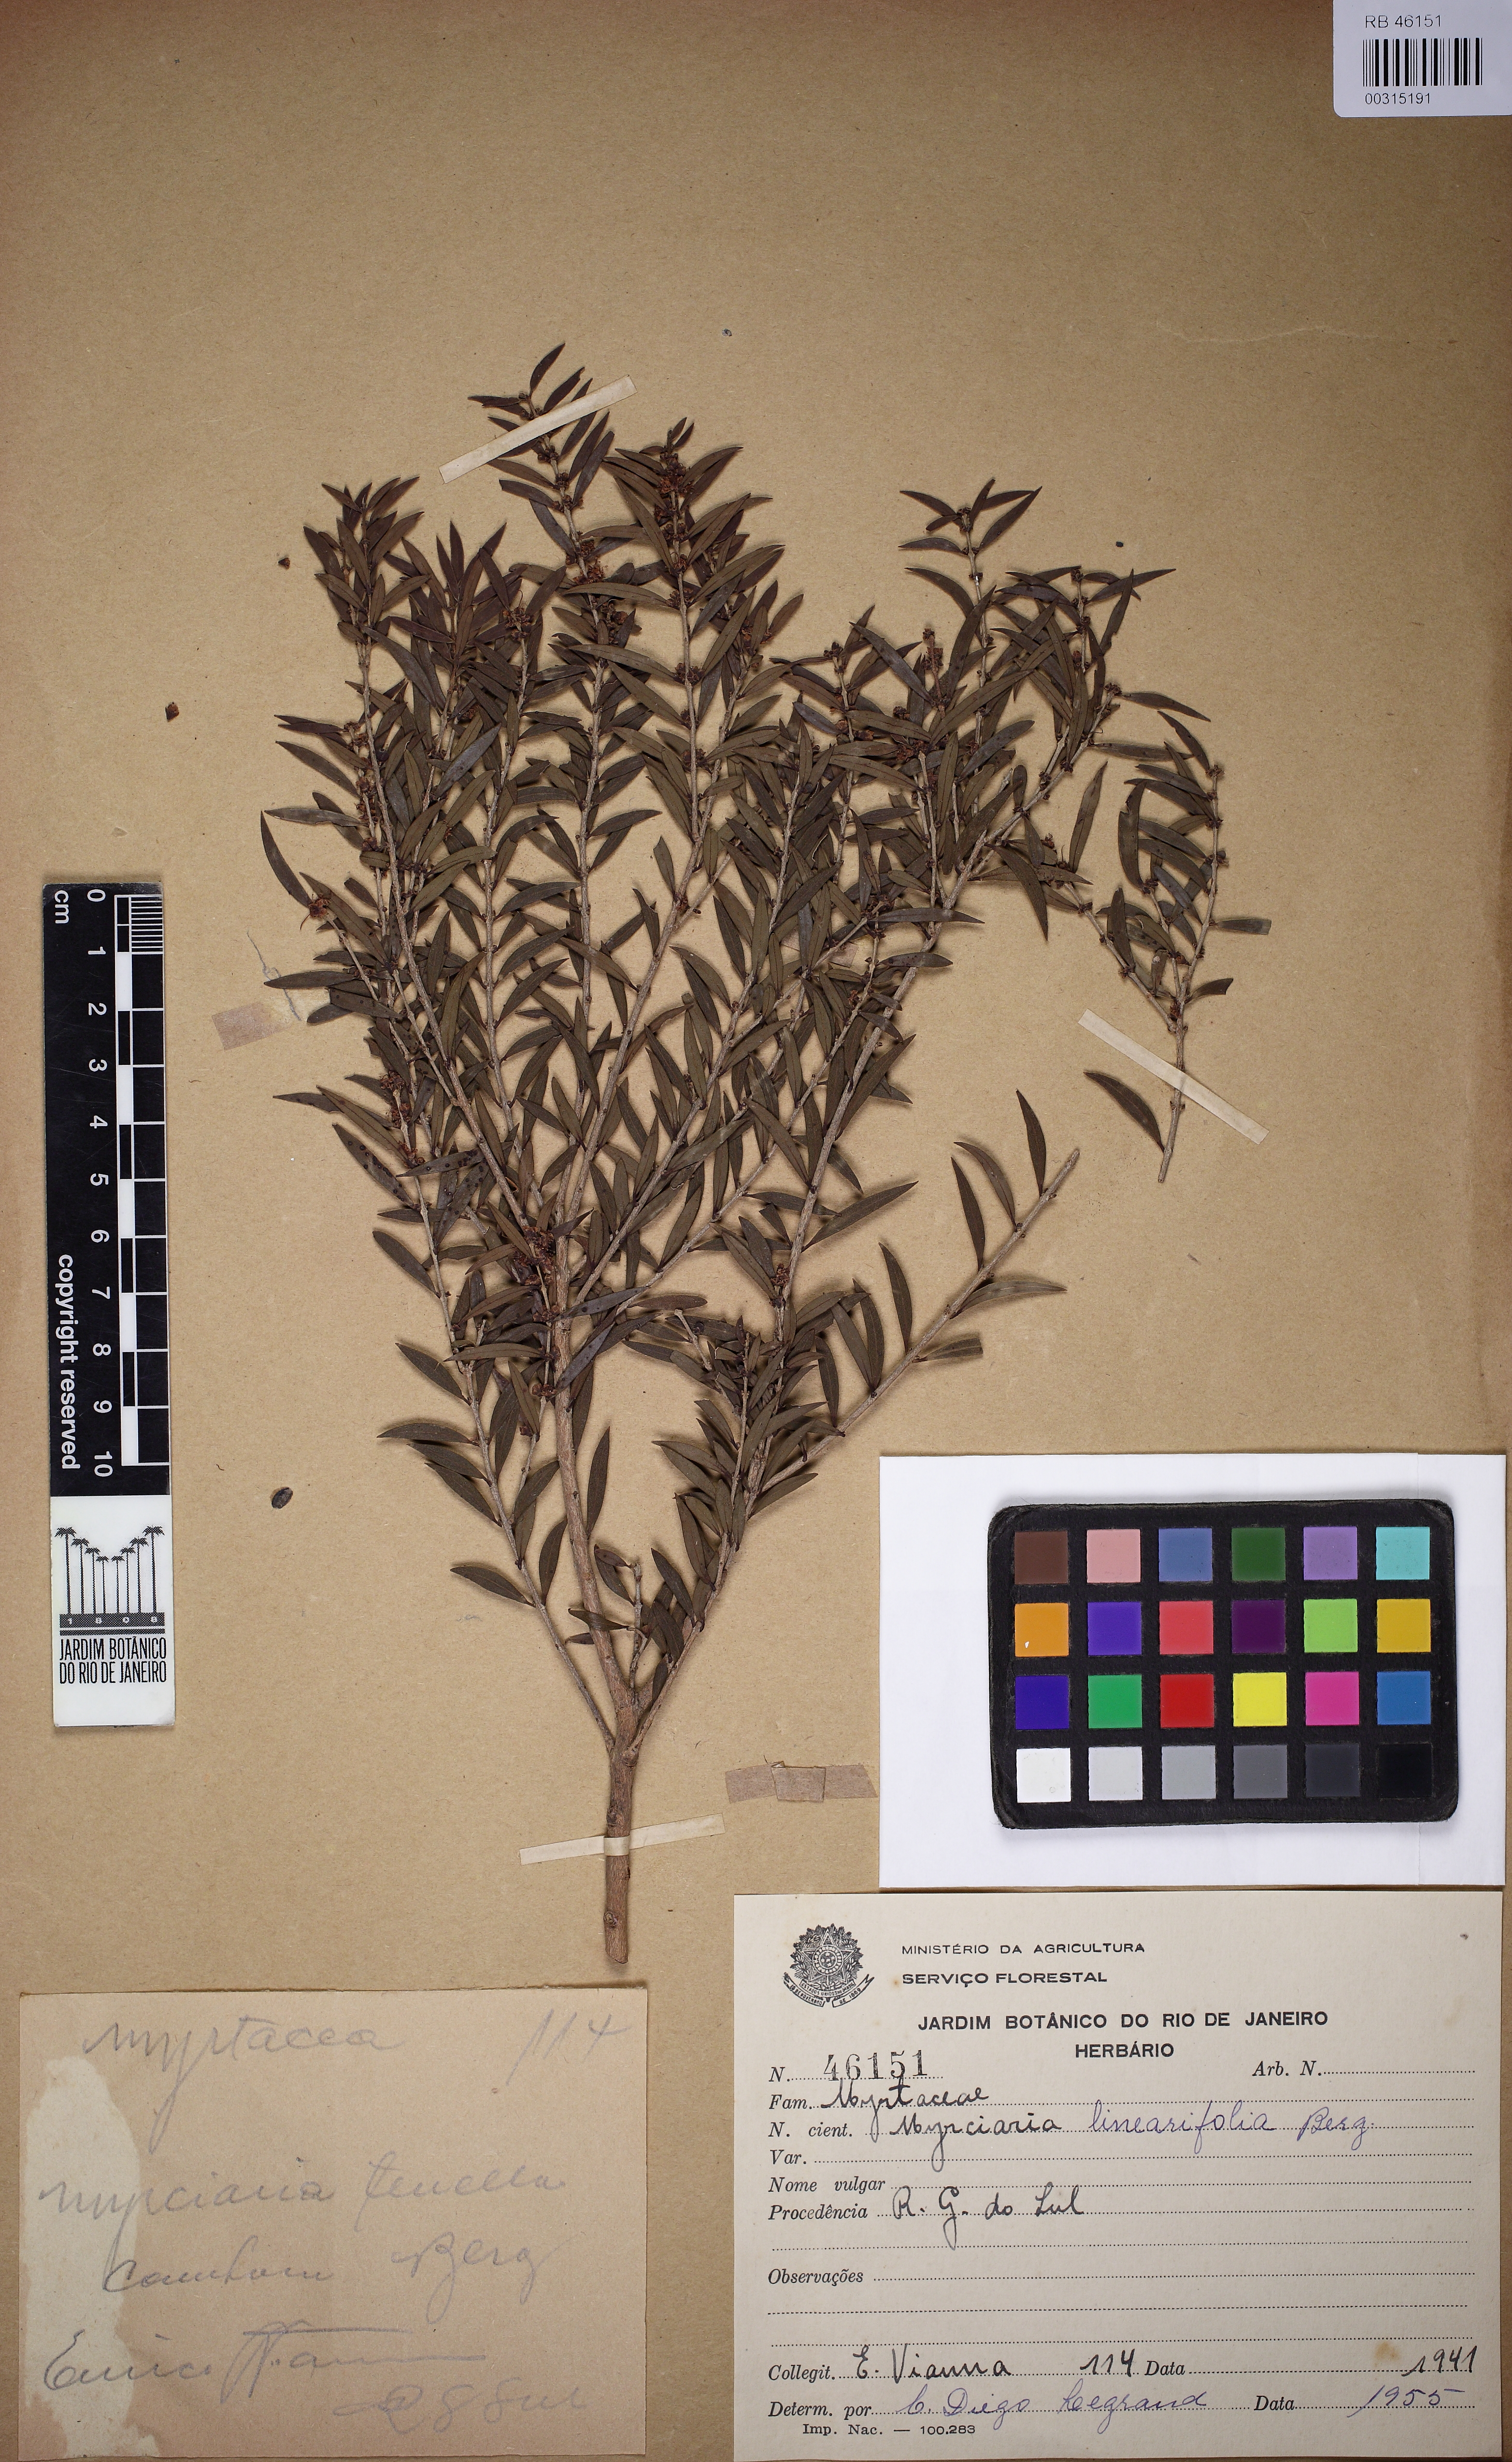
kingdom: Plantae
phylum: Tracheophyta
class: Magnoliopsida
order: Myrtales
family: Myrtaceae
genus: Myrciaria
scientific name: Myrciaria delicatula
